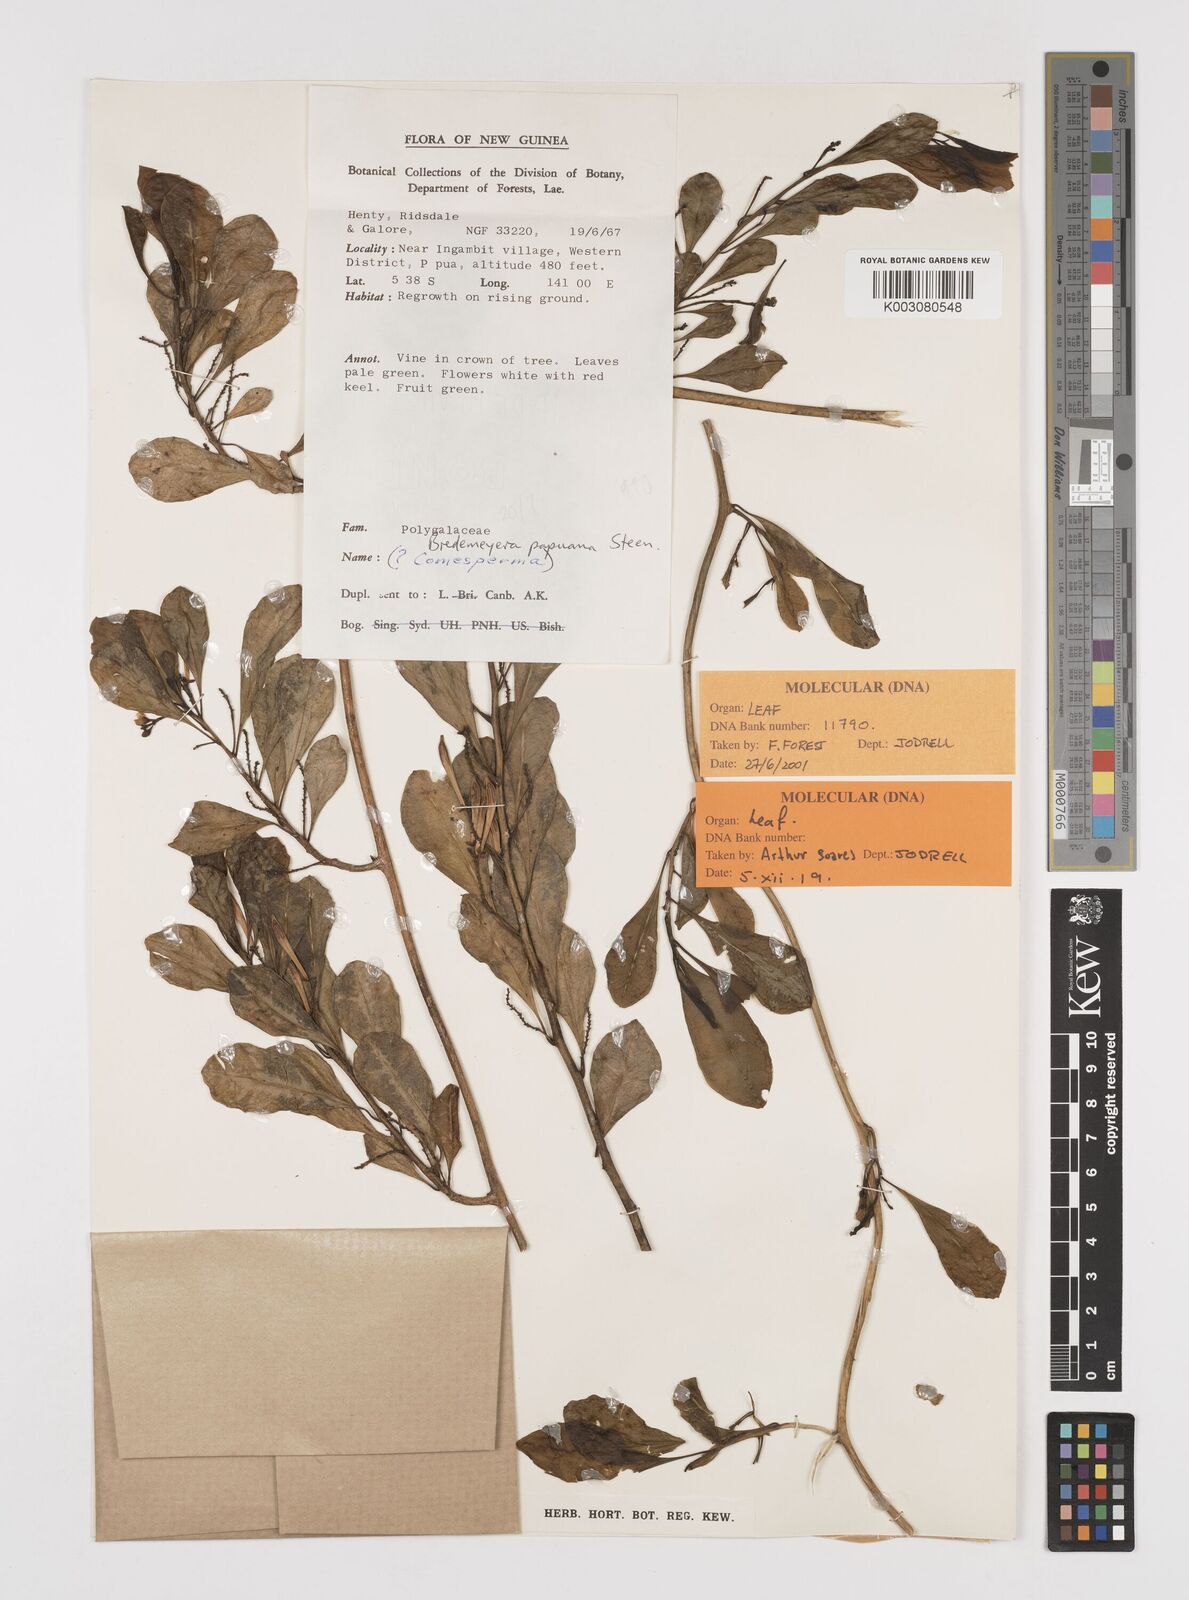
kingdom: Plantae
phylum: Tracheophyta
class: Magnoliopsida
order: Fabales
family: Polygalaceae
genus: Polygala
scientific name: Polygala papuana
